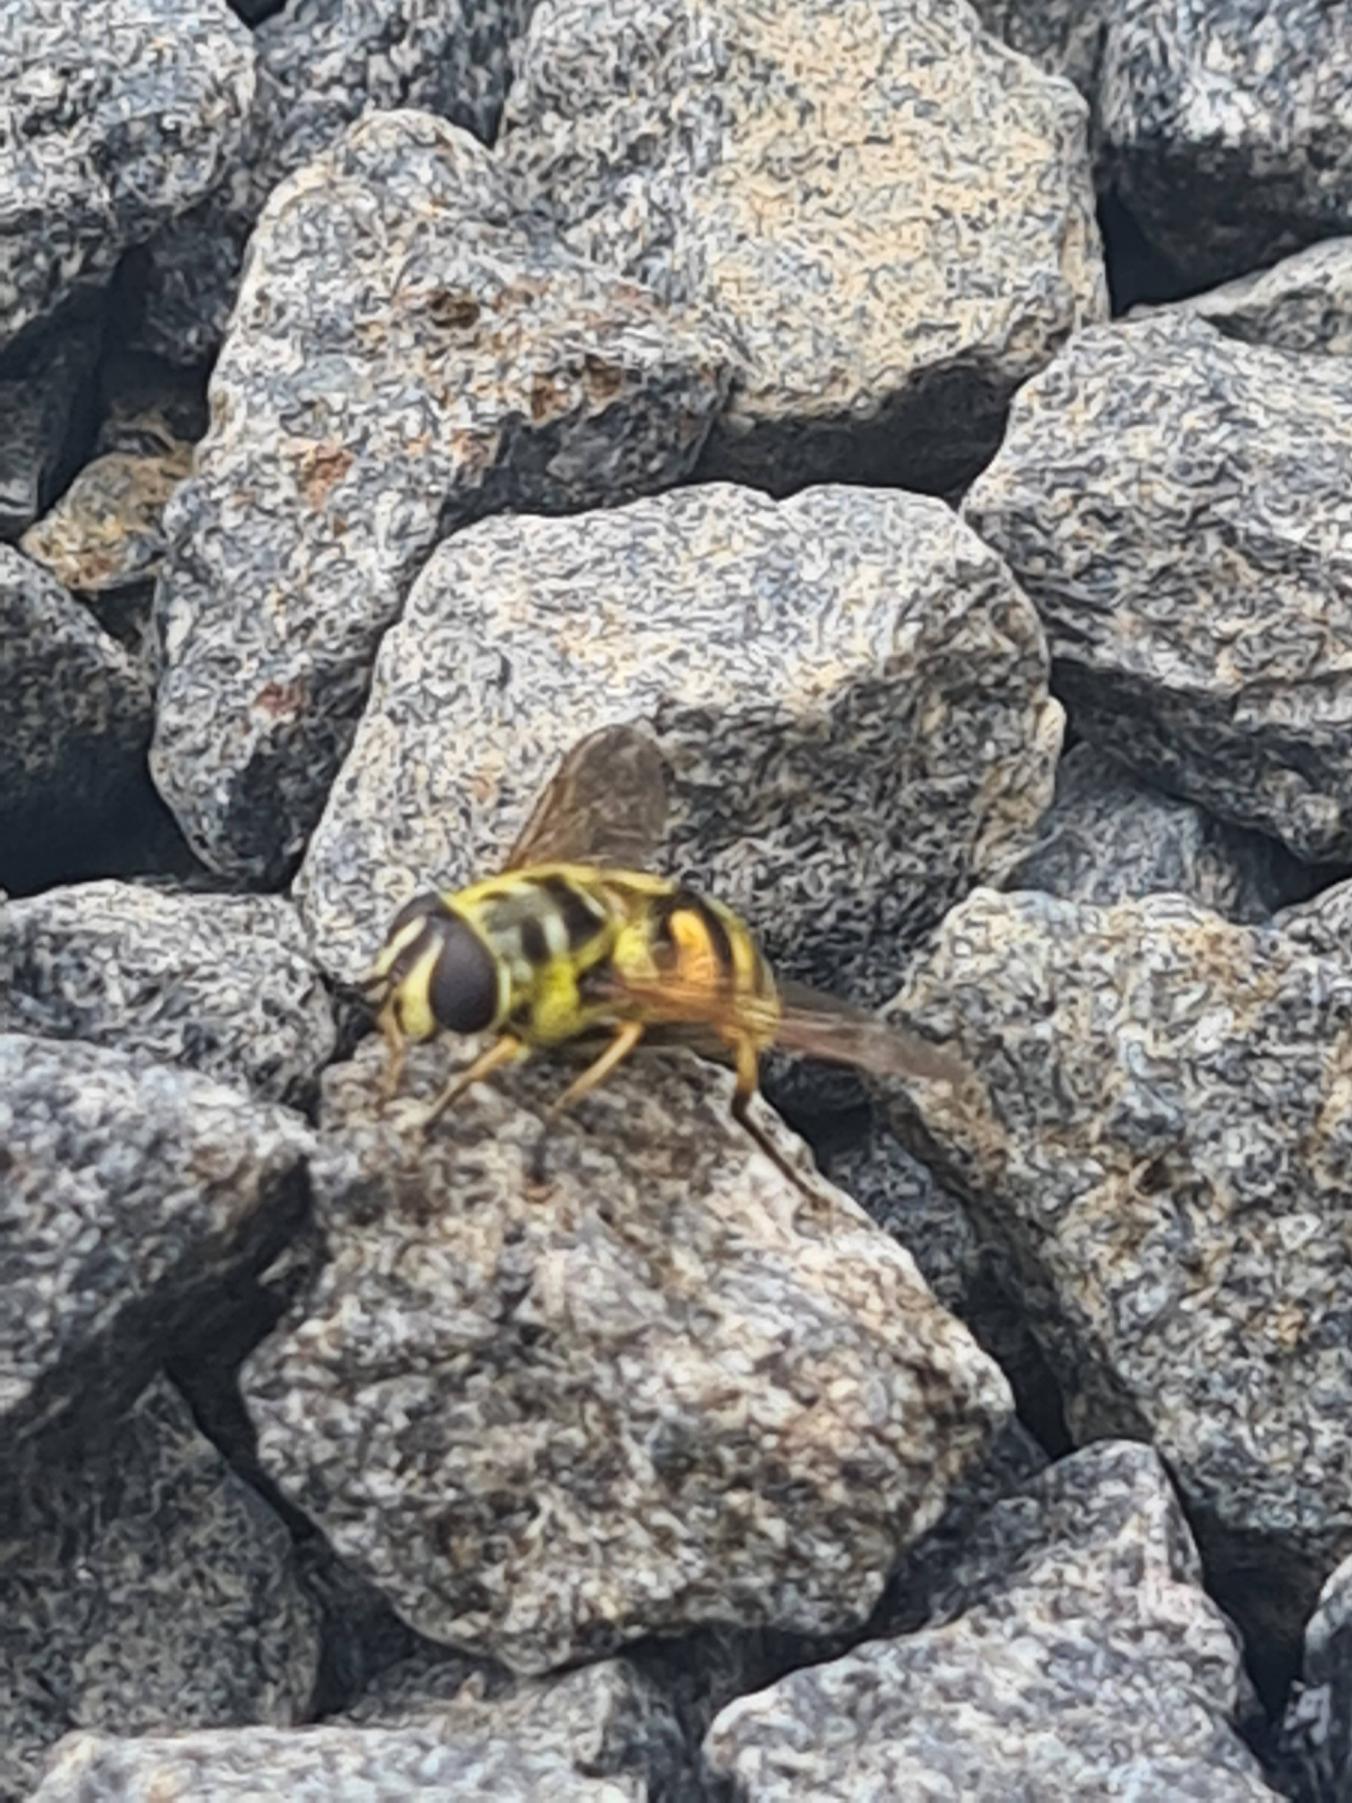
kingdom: Animalia
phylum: Arthropoda
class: Insecta
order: Diptera
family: Syrphidae
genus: Myathropa
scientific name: Myathropa florea
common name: Dødningehoved-svirreflue
